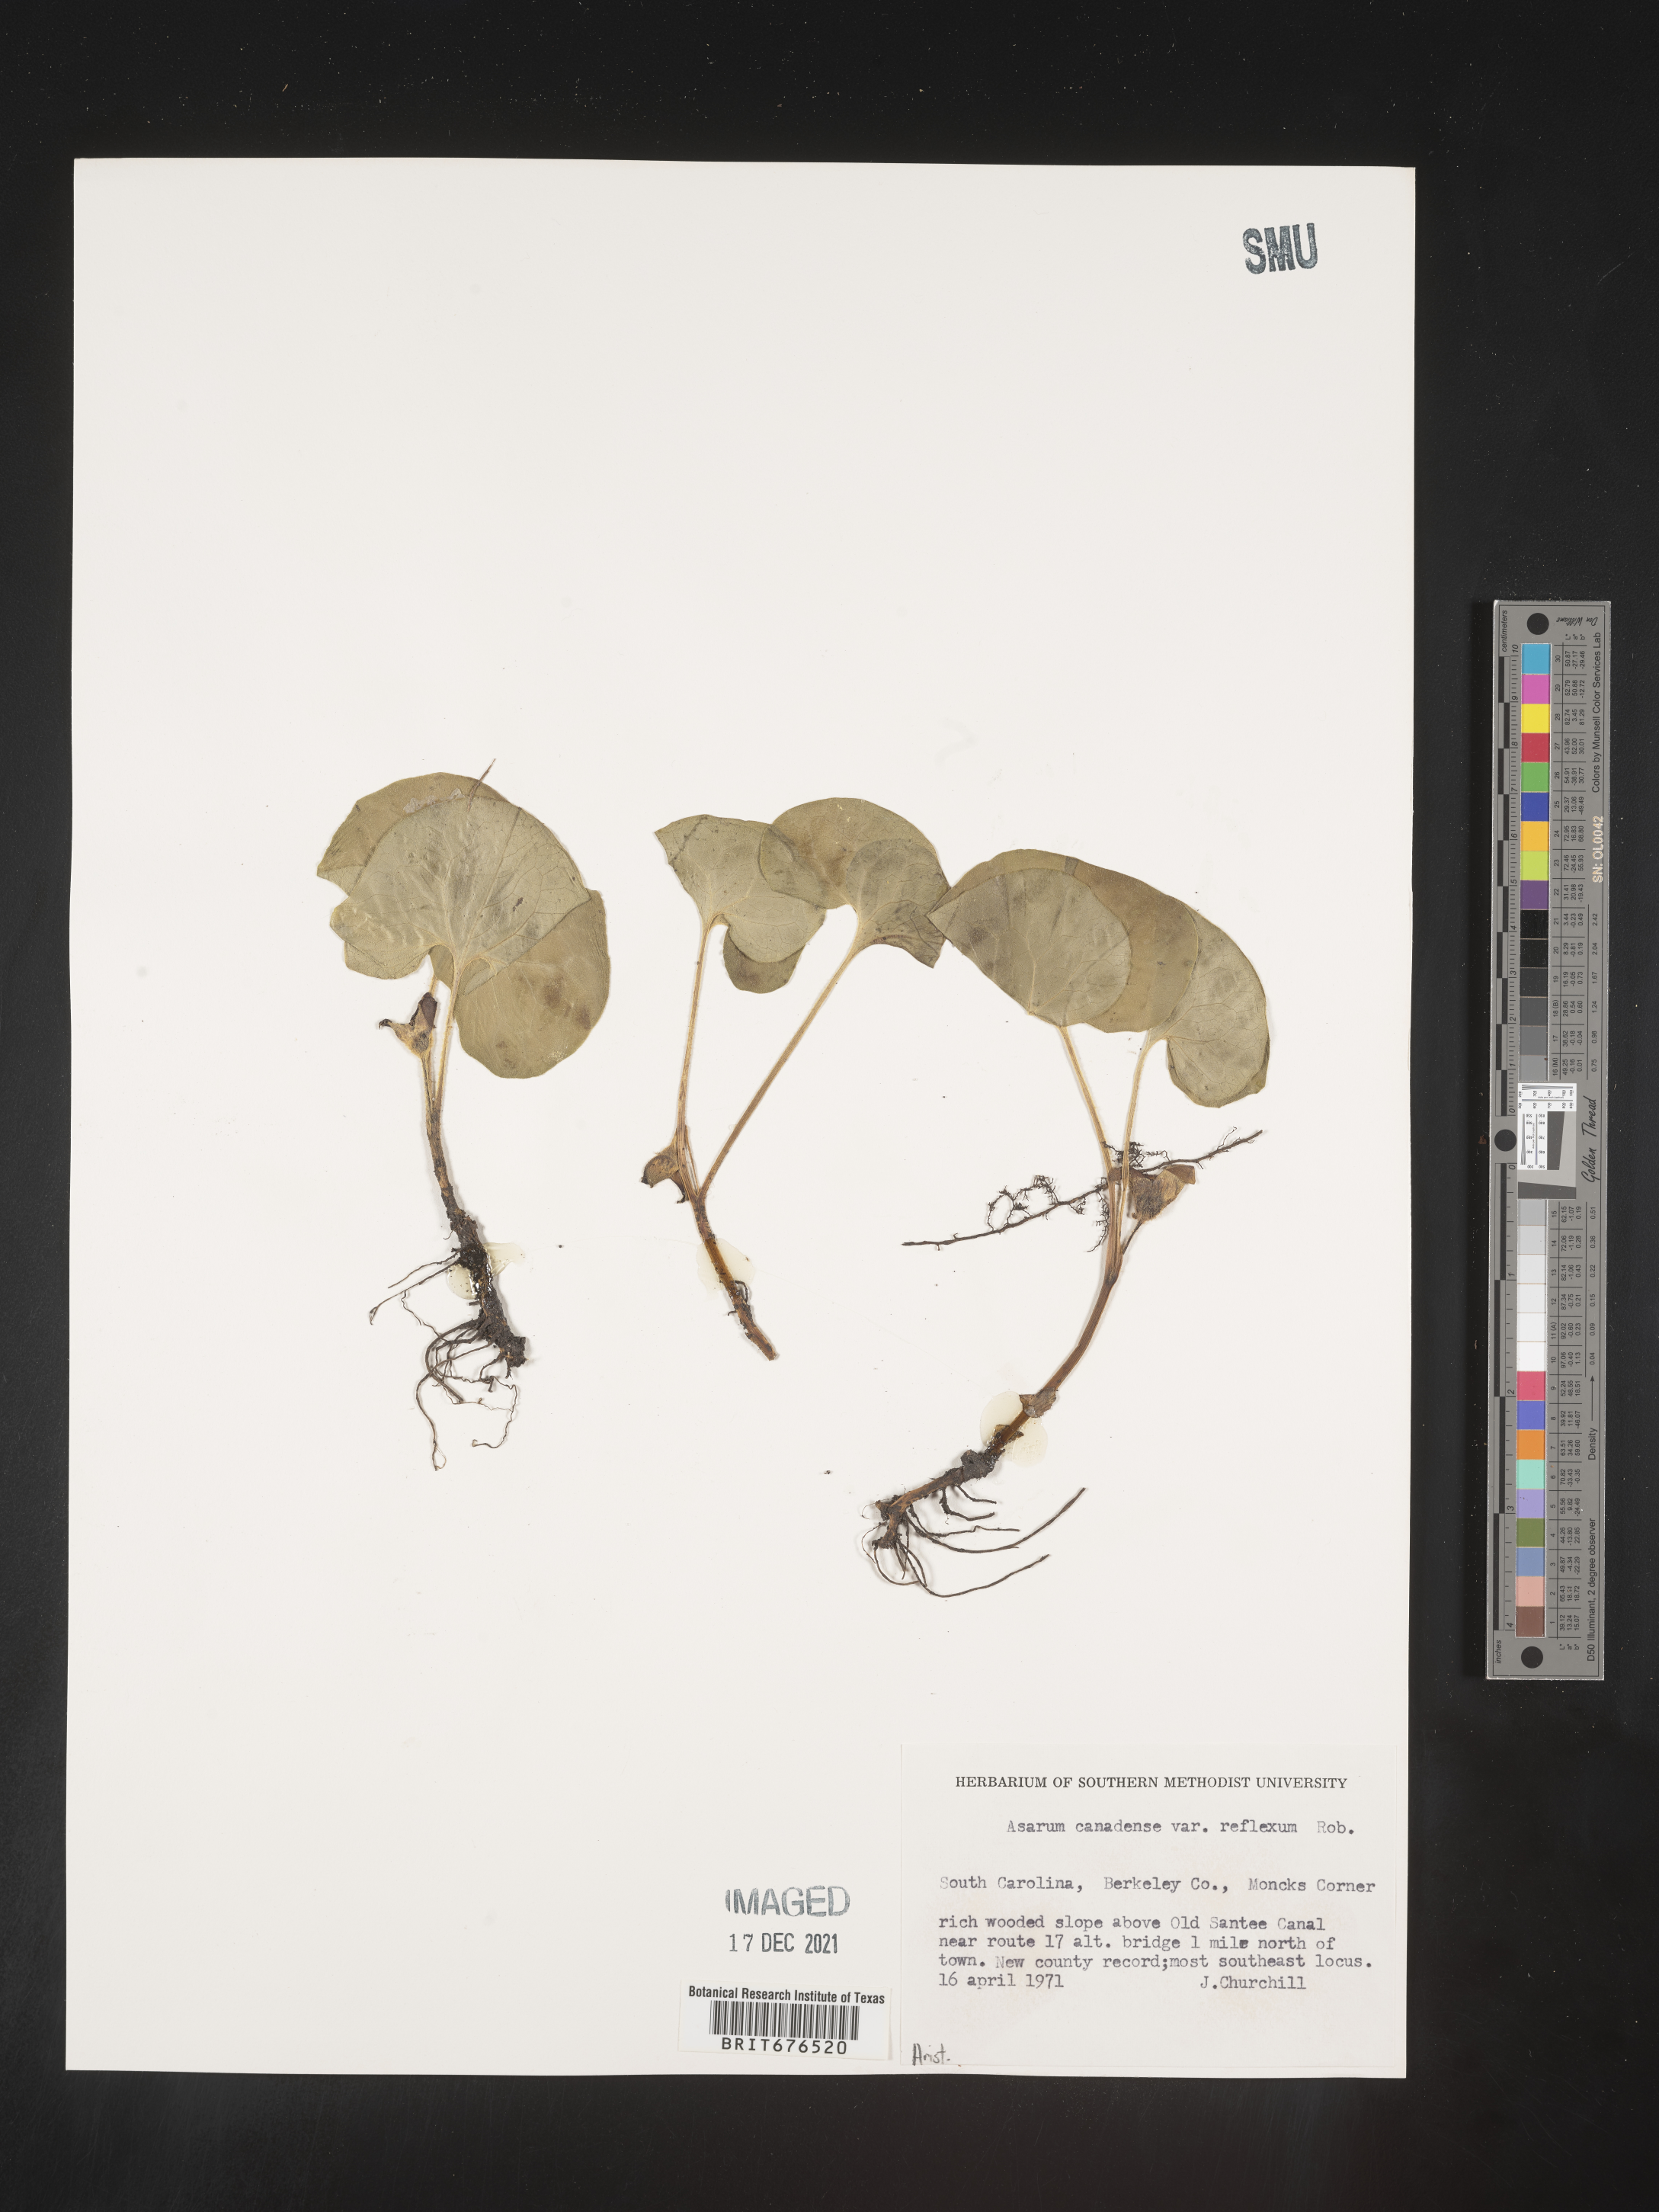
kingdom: Plantae
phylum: Tracheophyta
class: Magnoliopsida
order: Piperales
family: Aristolochiaceae
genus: Asarum
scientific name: Asarum canadense
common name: Wild ginger
